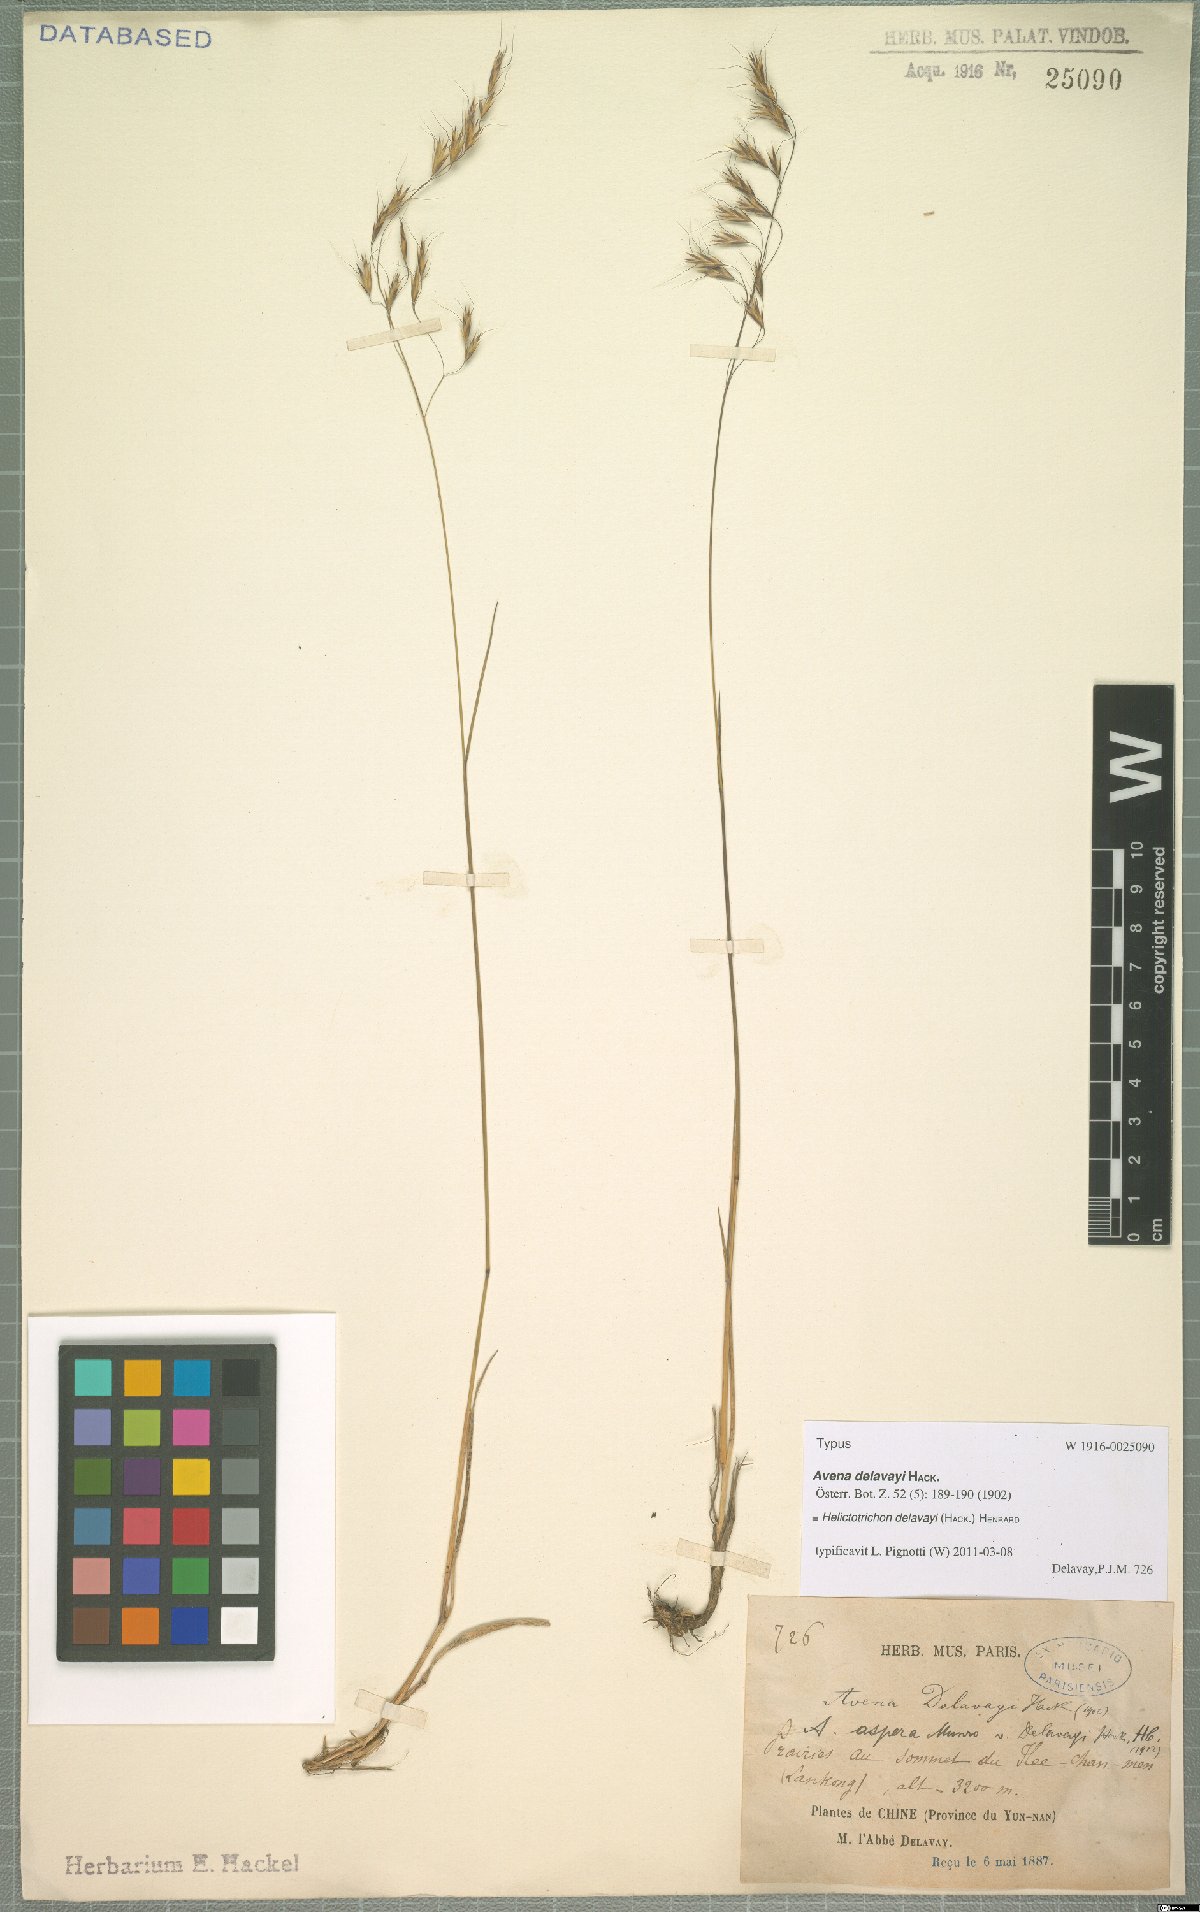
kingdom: Plantae
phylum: Tracheophyta
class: Liliopsida
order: Poales
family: Poaceae
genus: Helictotrichon
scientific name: Helictotrichon delavayi
